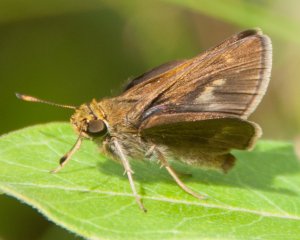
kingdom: Animalia
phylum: Arthropoda
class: Insecta
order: Lepidoptera
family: Hesperiidae
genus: Polites
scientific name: Polites egeremet
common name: Northern Broken-Dash
